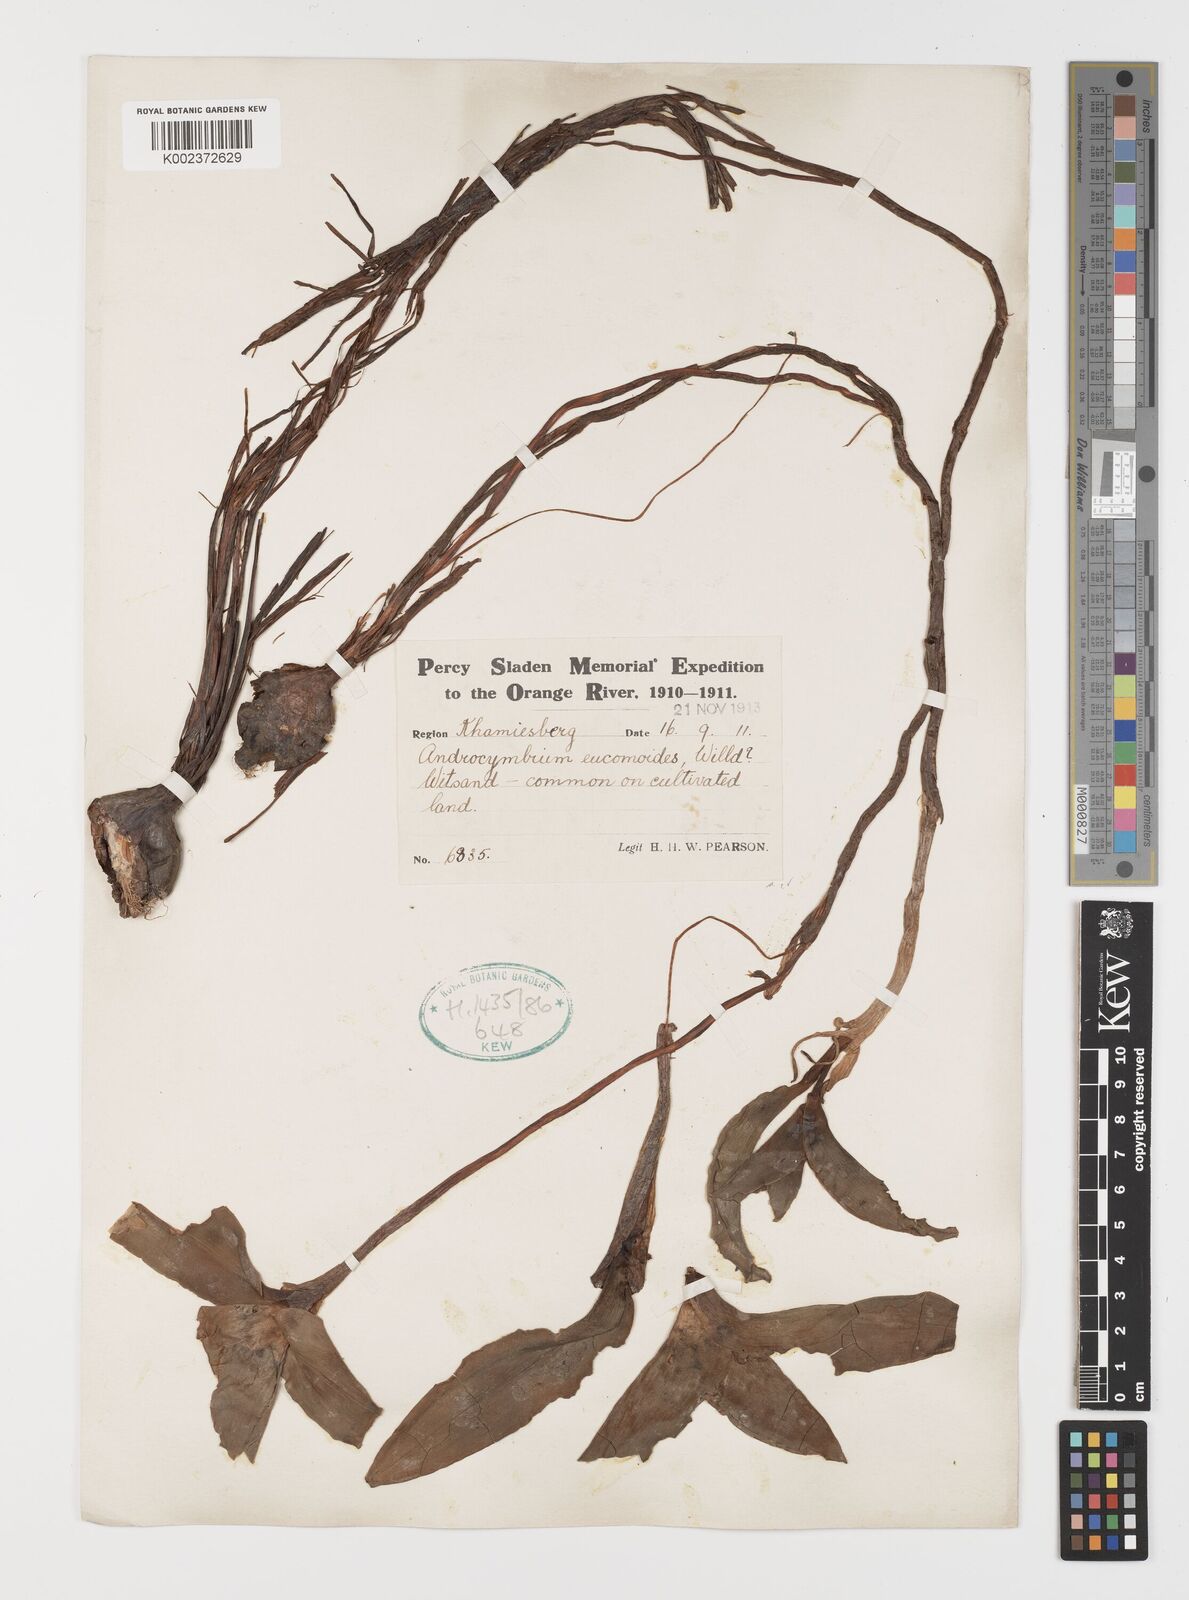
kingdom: Plantae
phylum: Tracheophyta
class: Liliopsida
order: Liliales
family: Colchicaceae
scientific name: Colchicaceae
